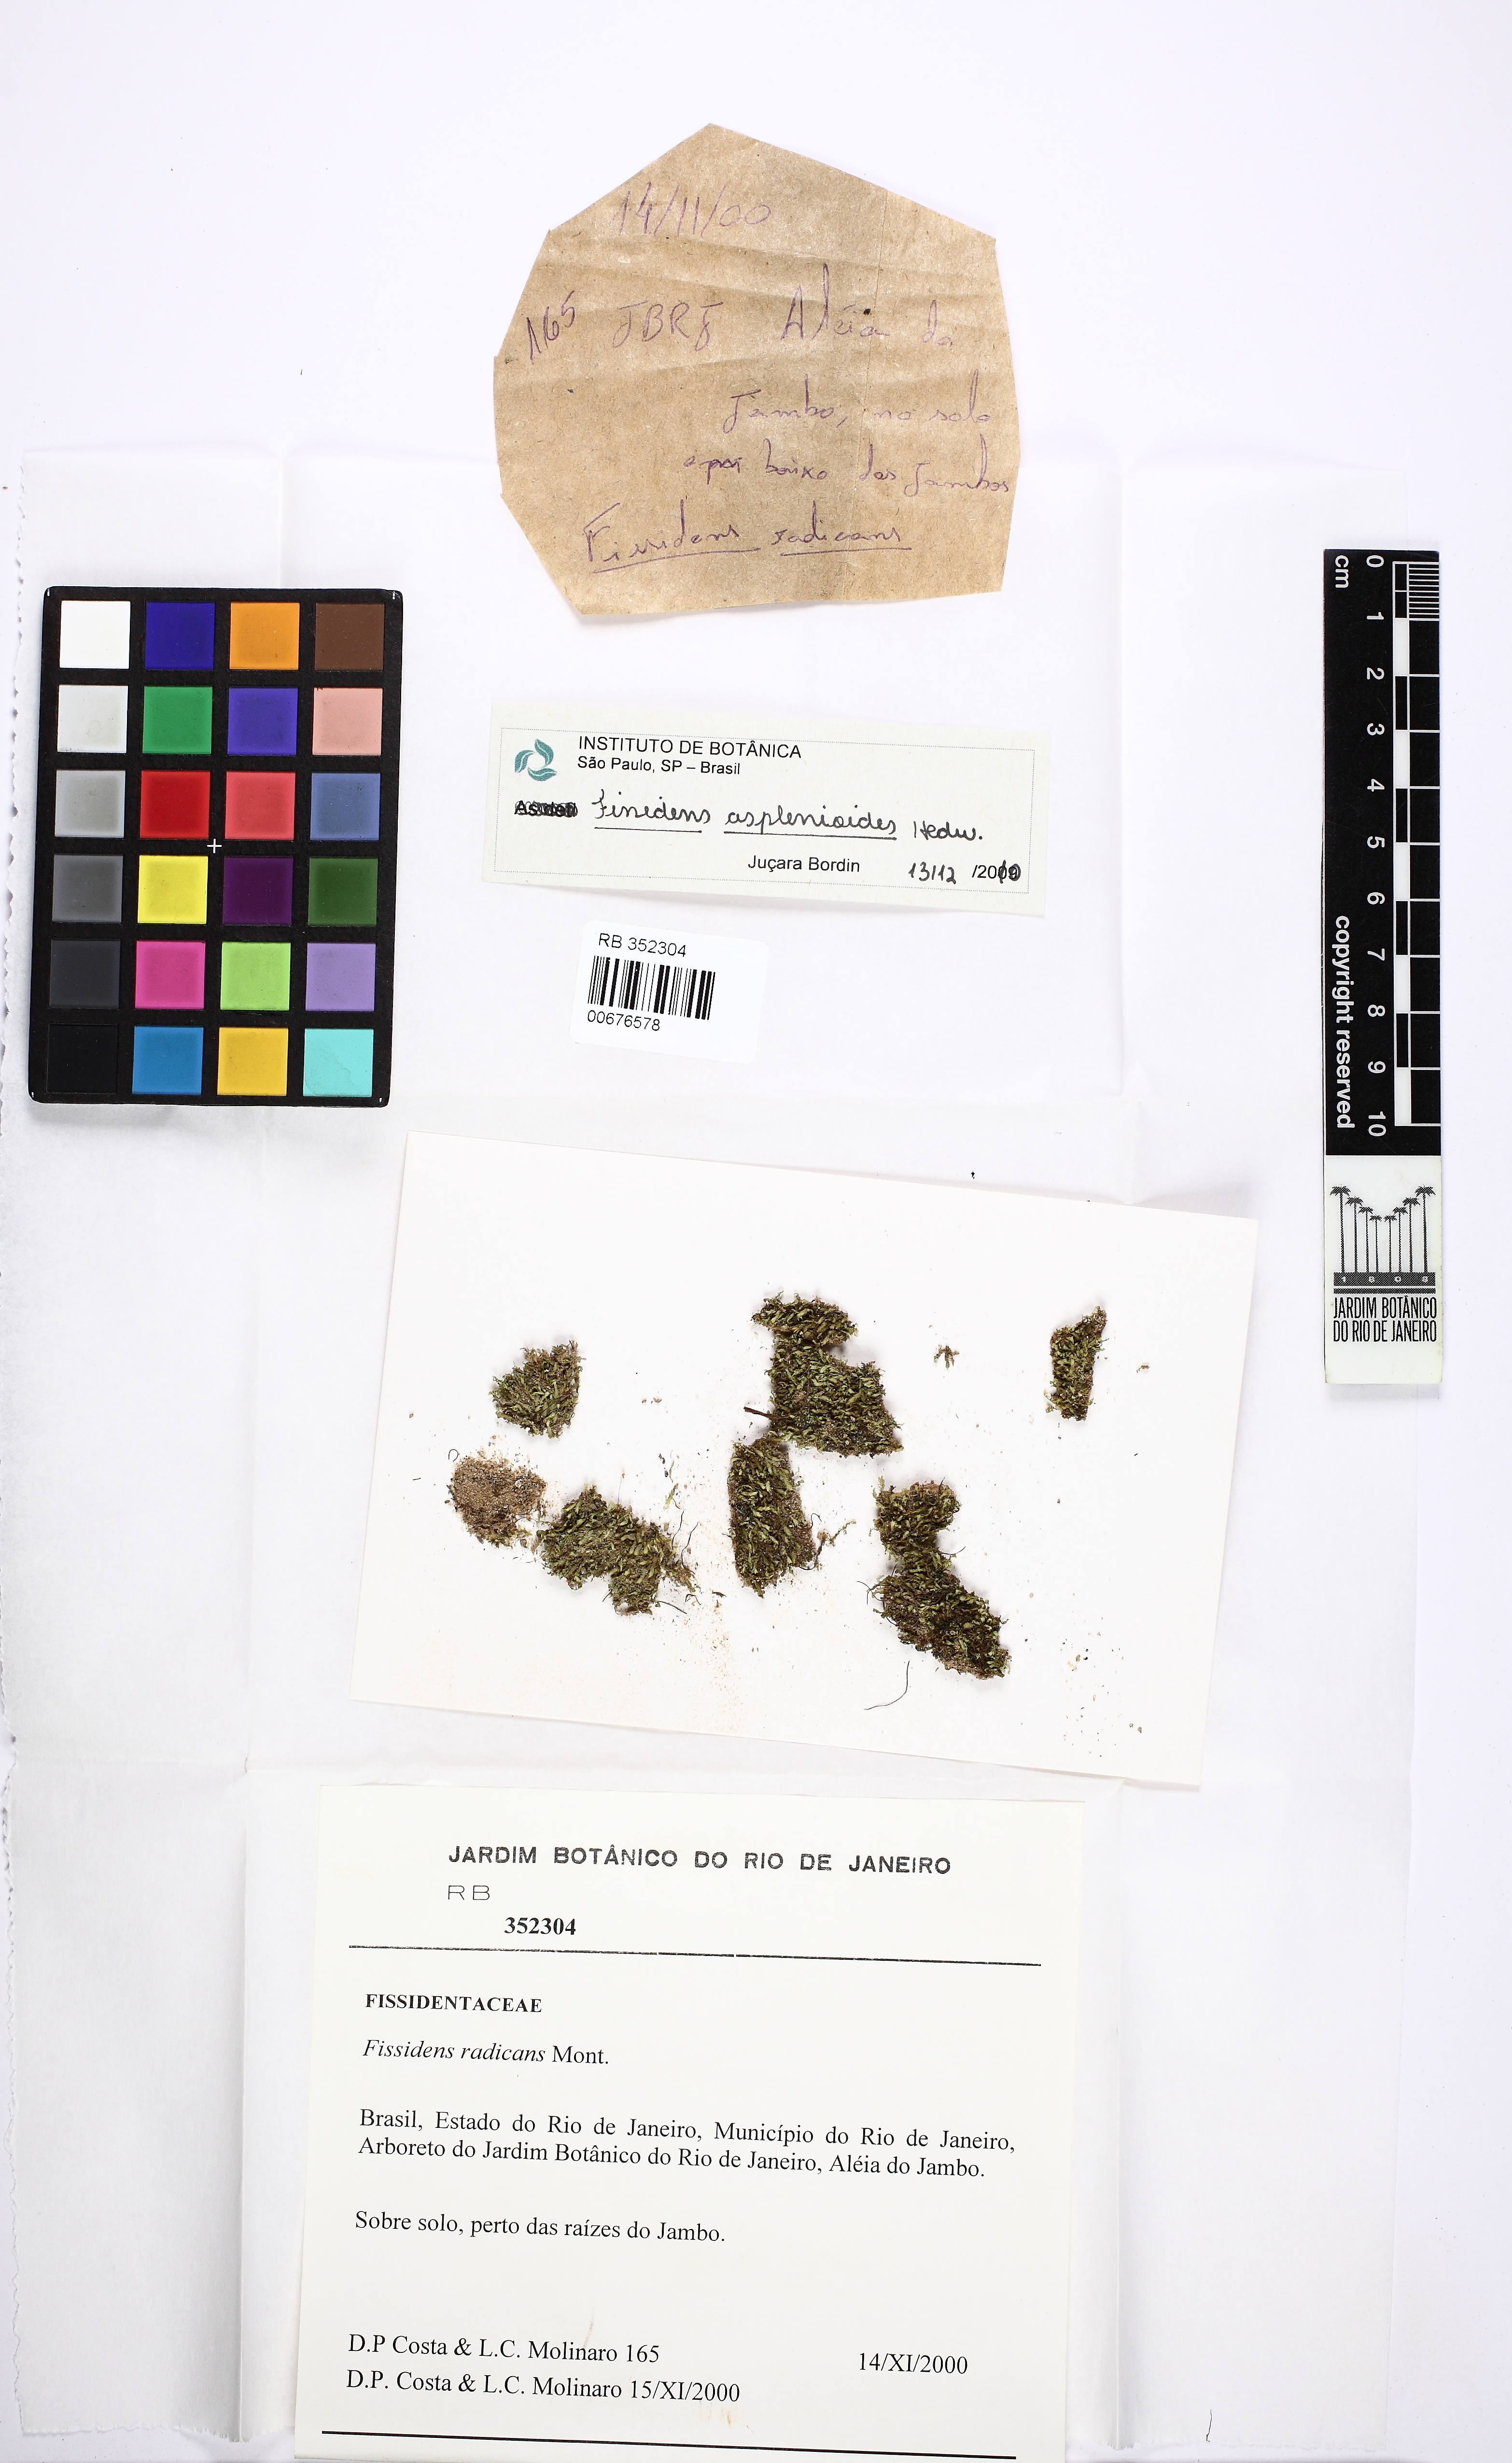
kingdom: Plantae
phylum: Bryophyta
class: Bryopsida
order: Dicranales
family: Fissidentaceae
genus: Fissidens
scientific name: Fissidens radicans
